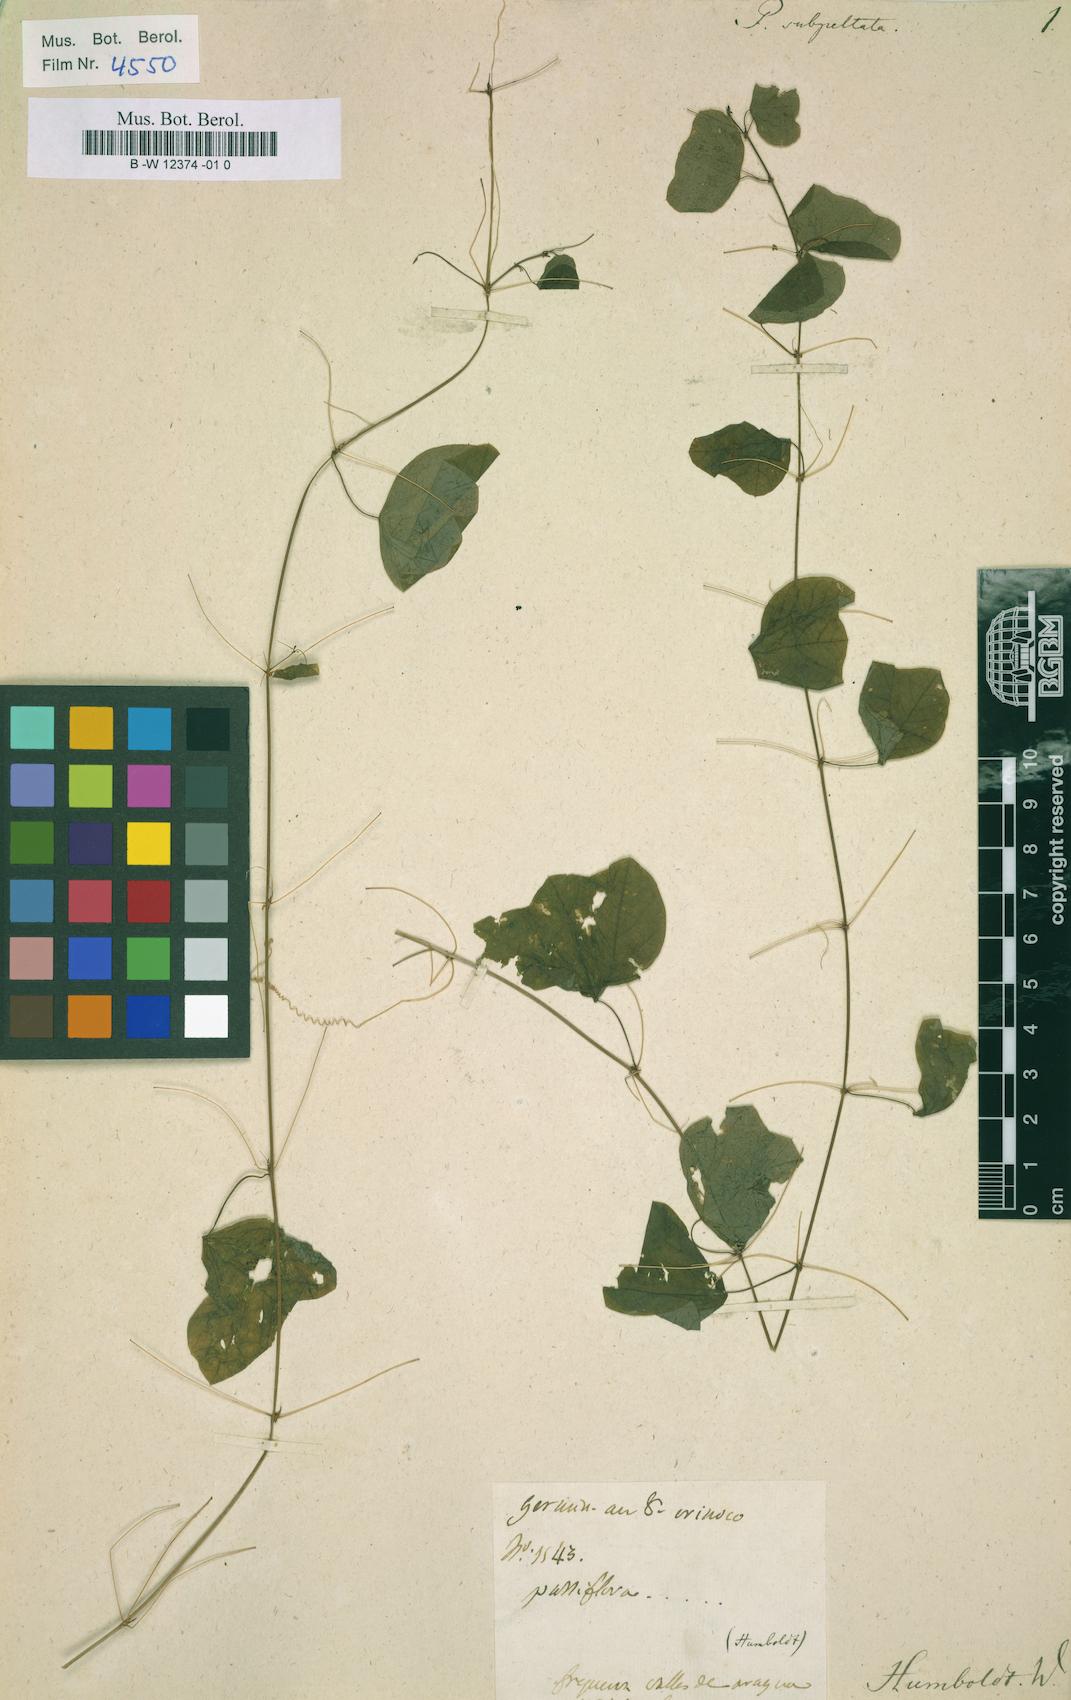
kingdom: Plantae
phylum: Tracheophyta
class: Magnoliopsida
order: Malpighiales
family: Passifloraceae
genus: Passiflora
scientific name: Passiflora subpeltata
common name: White passionflower
